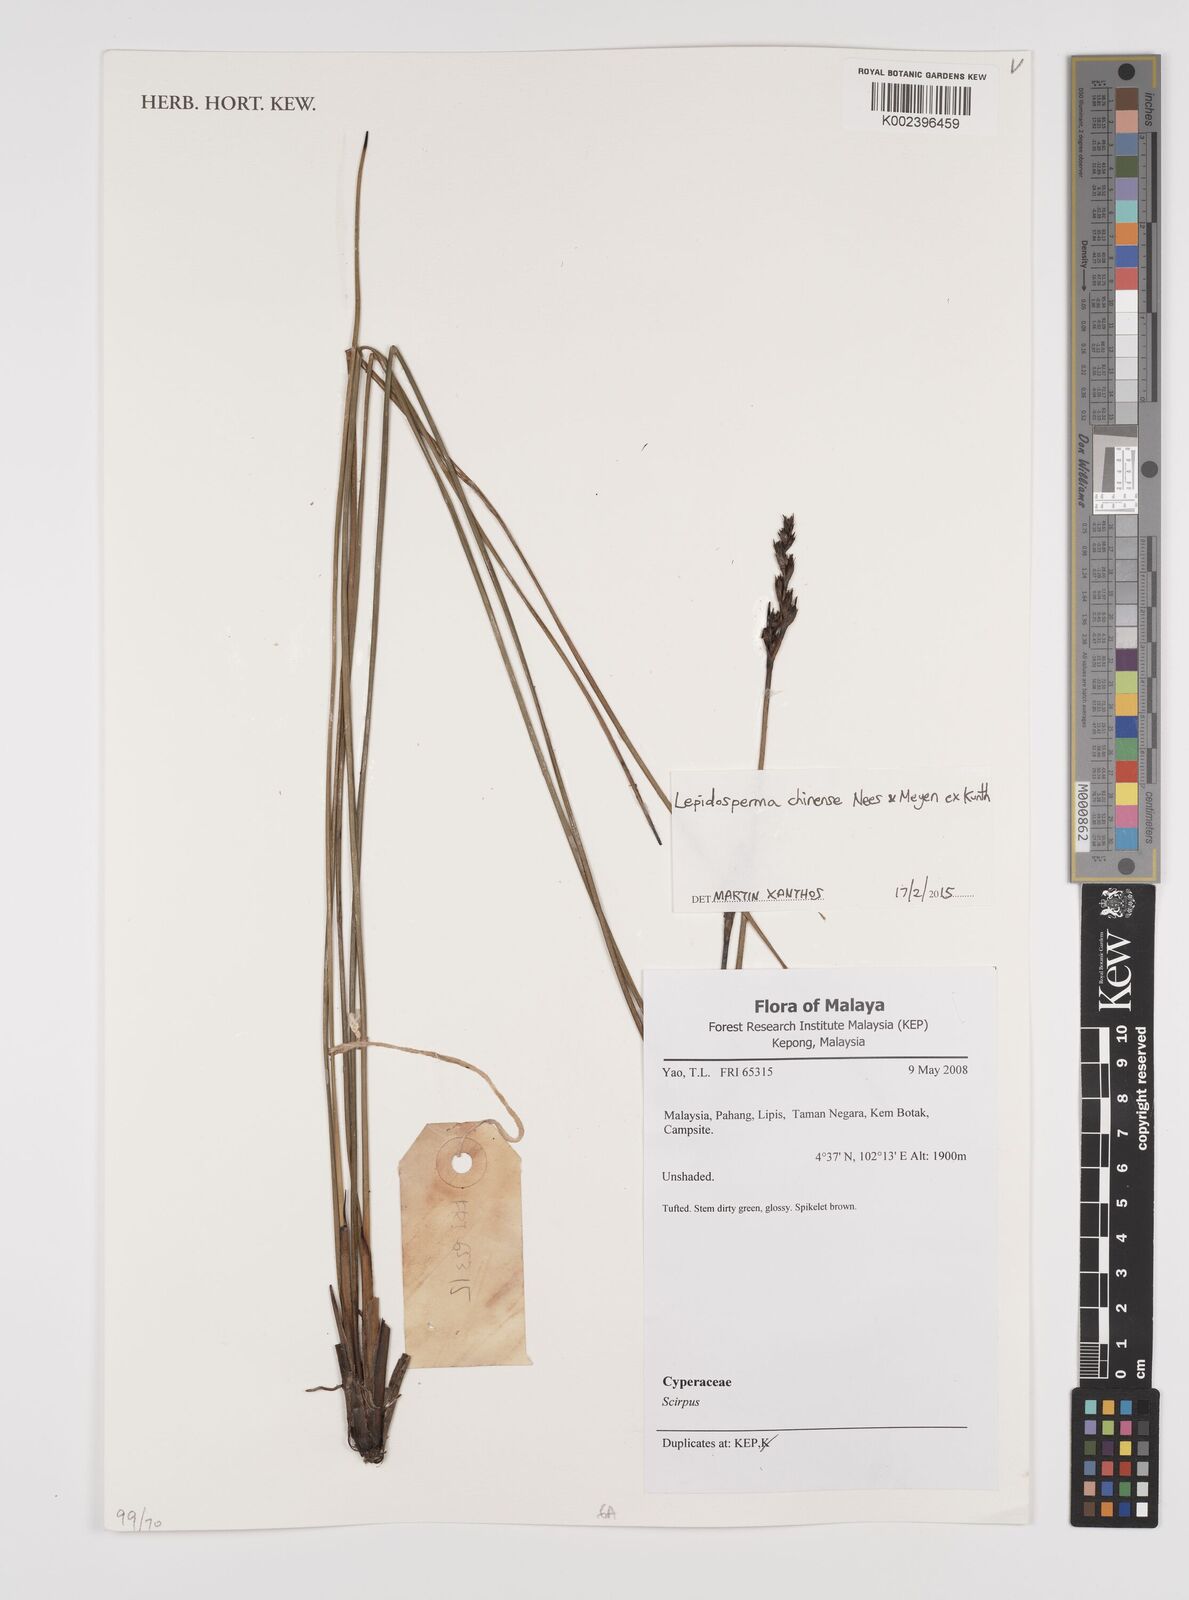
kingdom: Plantae
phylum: Tracheophyta
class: Liliopsida
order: Poales
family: Cyperaceae
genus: Lepidosperma
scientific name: Lepidosperma chinense
